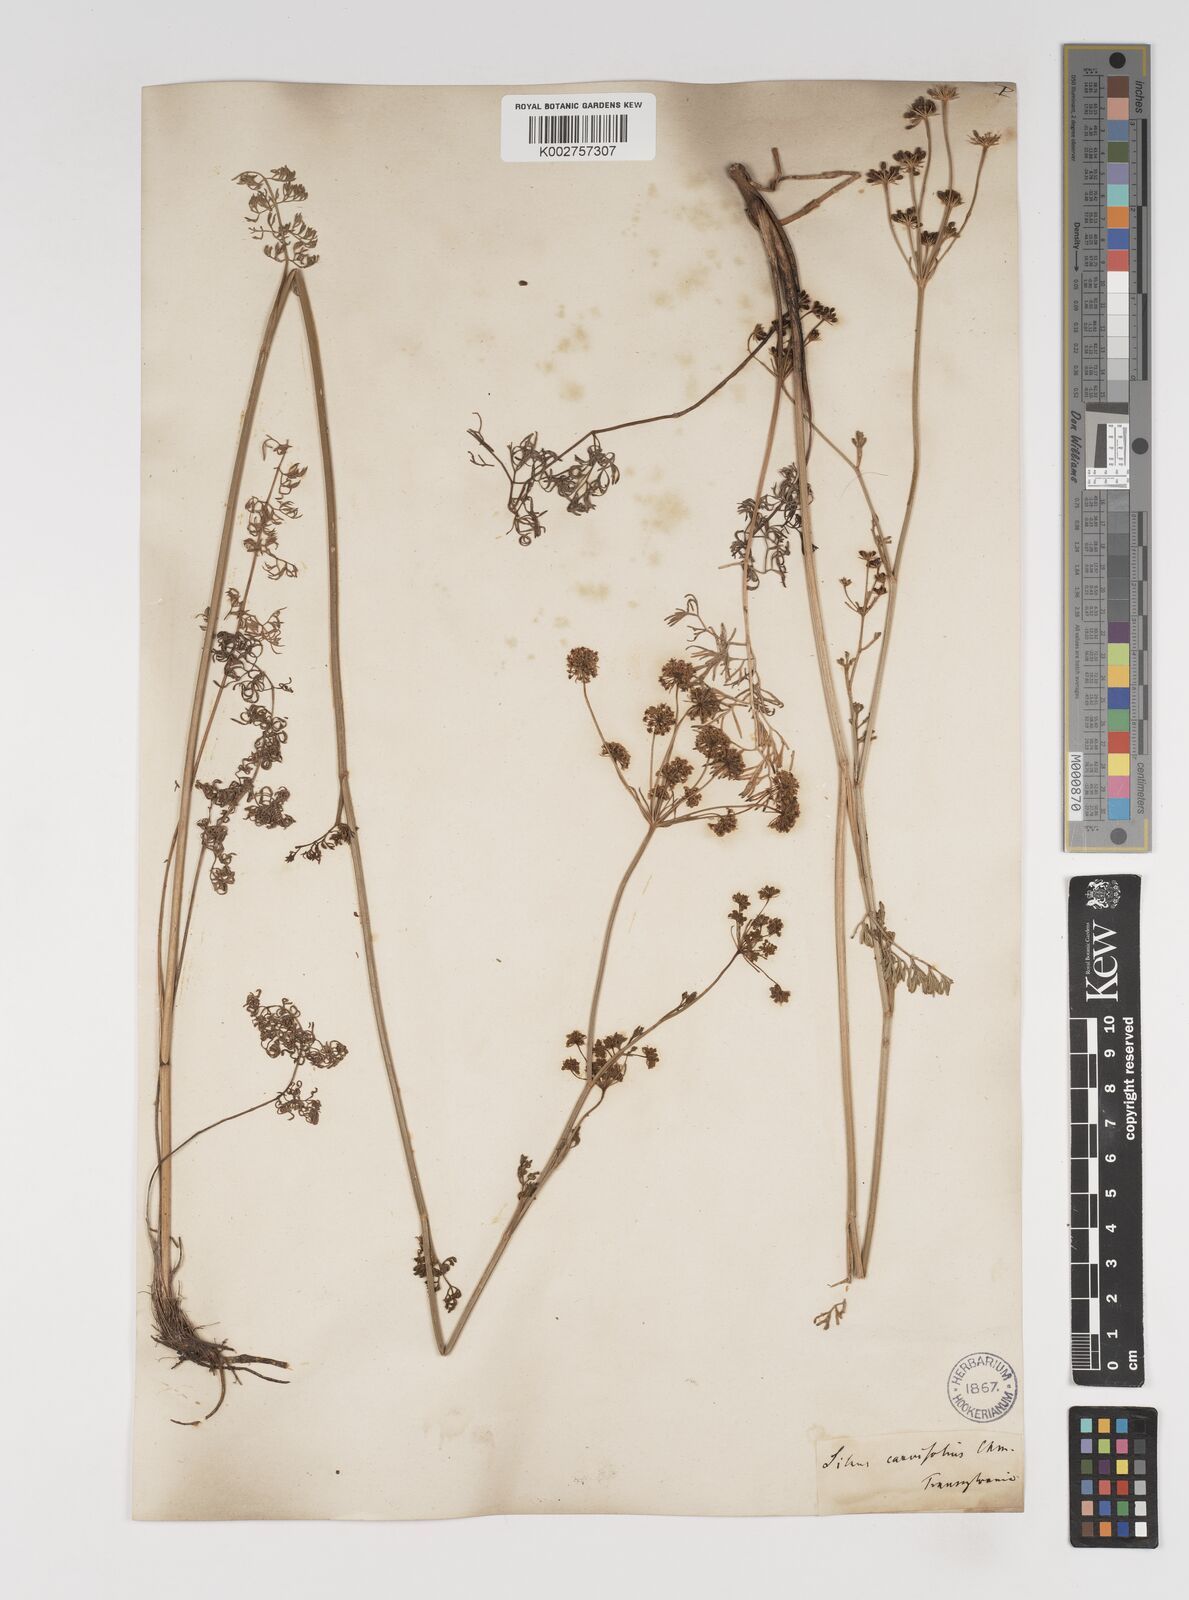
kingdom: Plantae
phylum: Tracheophyta
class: Magnoliopsida
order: Apiales
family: Apiaceae
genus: Gasparinia
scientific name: Gasparinia peucedanoides
